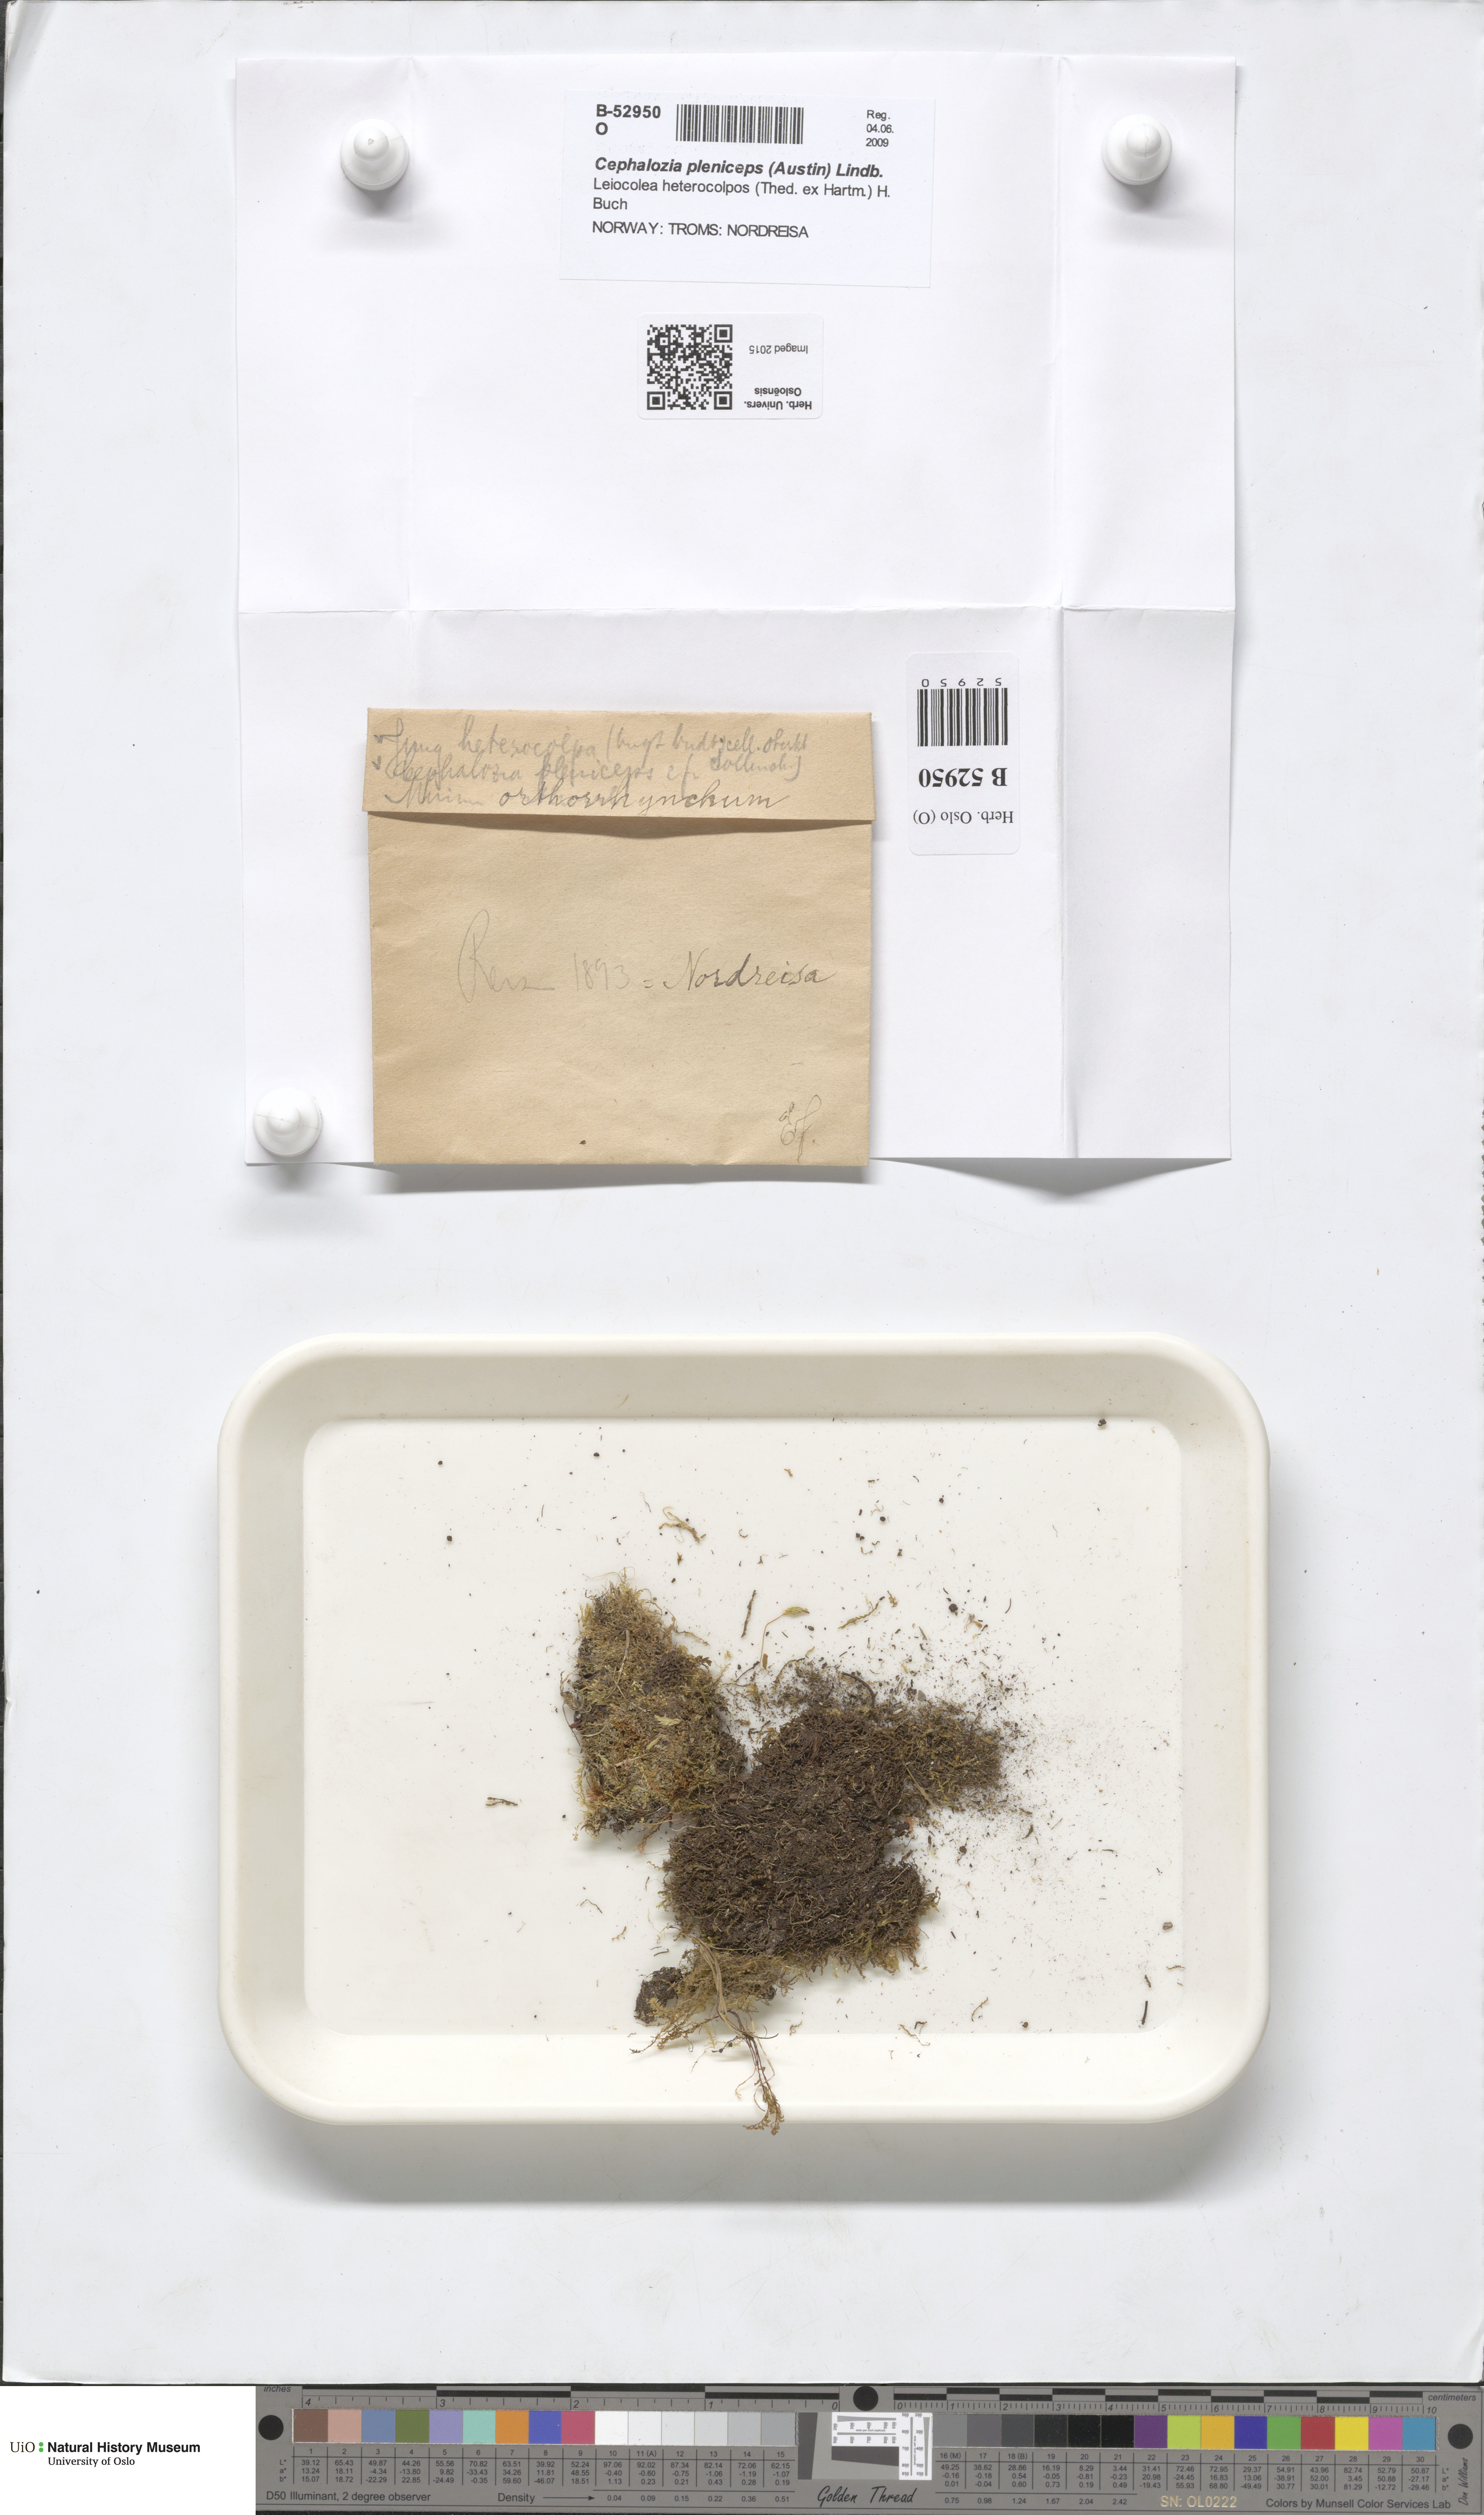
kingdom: Plantae
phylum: Marchantiophyta
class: Jungermanniopsida
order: Jungermanniales
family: Cephaloziaceae
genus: Fuscocephaloziopsis
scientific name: Fuscocephaloziopsis pleniceps
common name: Blunt pincerwort
